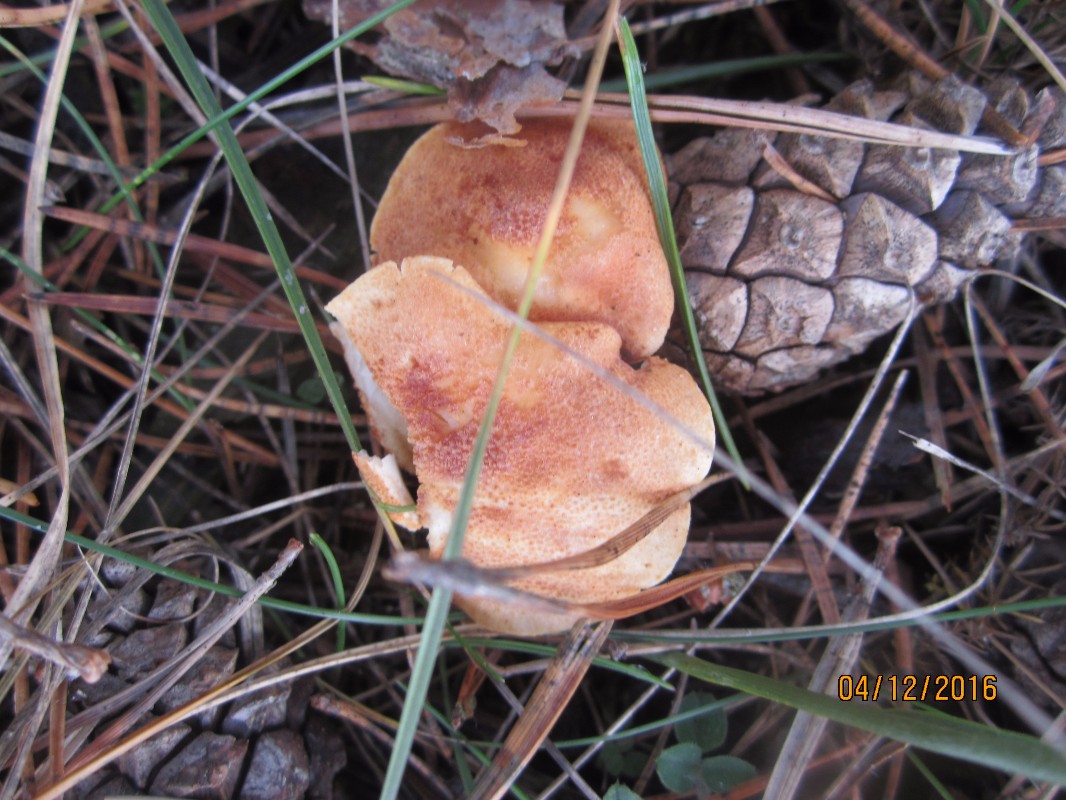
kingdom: Fungi
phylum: Basidiomycota
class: Agaricomycetes
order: Agaricales
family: Agaricaceae
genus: Cystodermella
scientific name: Cystodermella cinnabarina
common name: cinnober-grynhat
